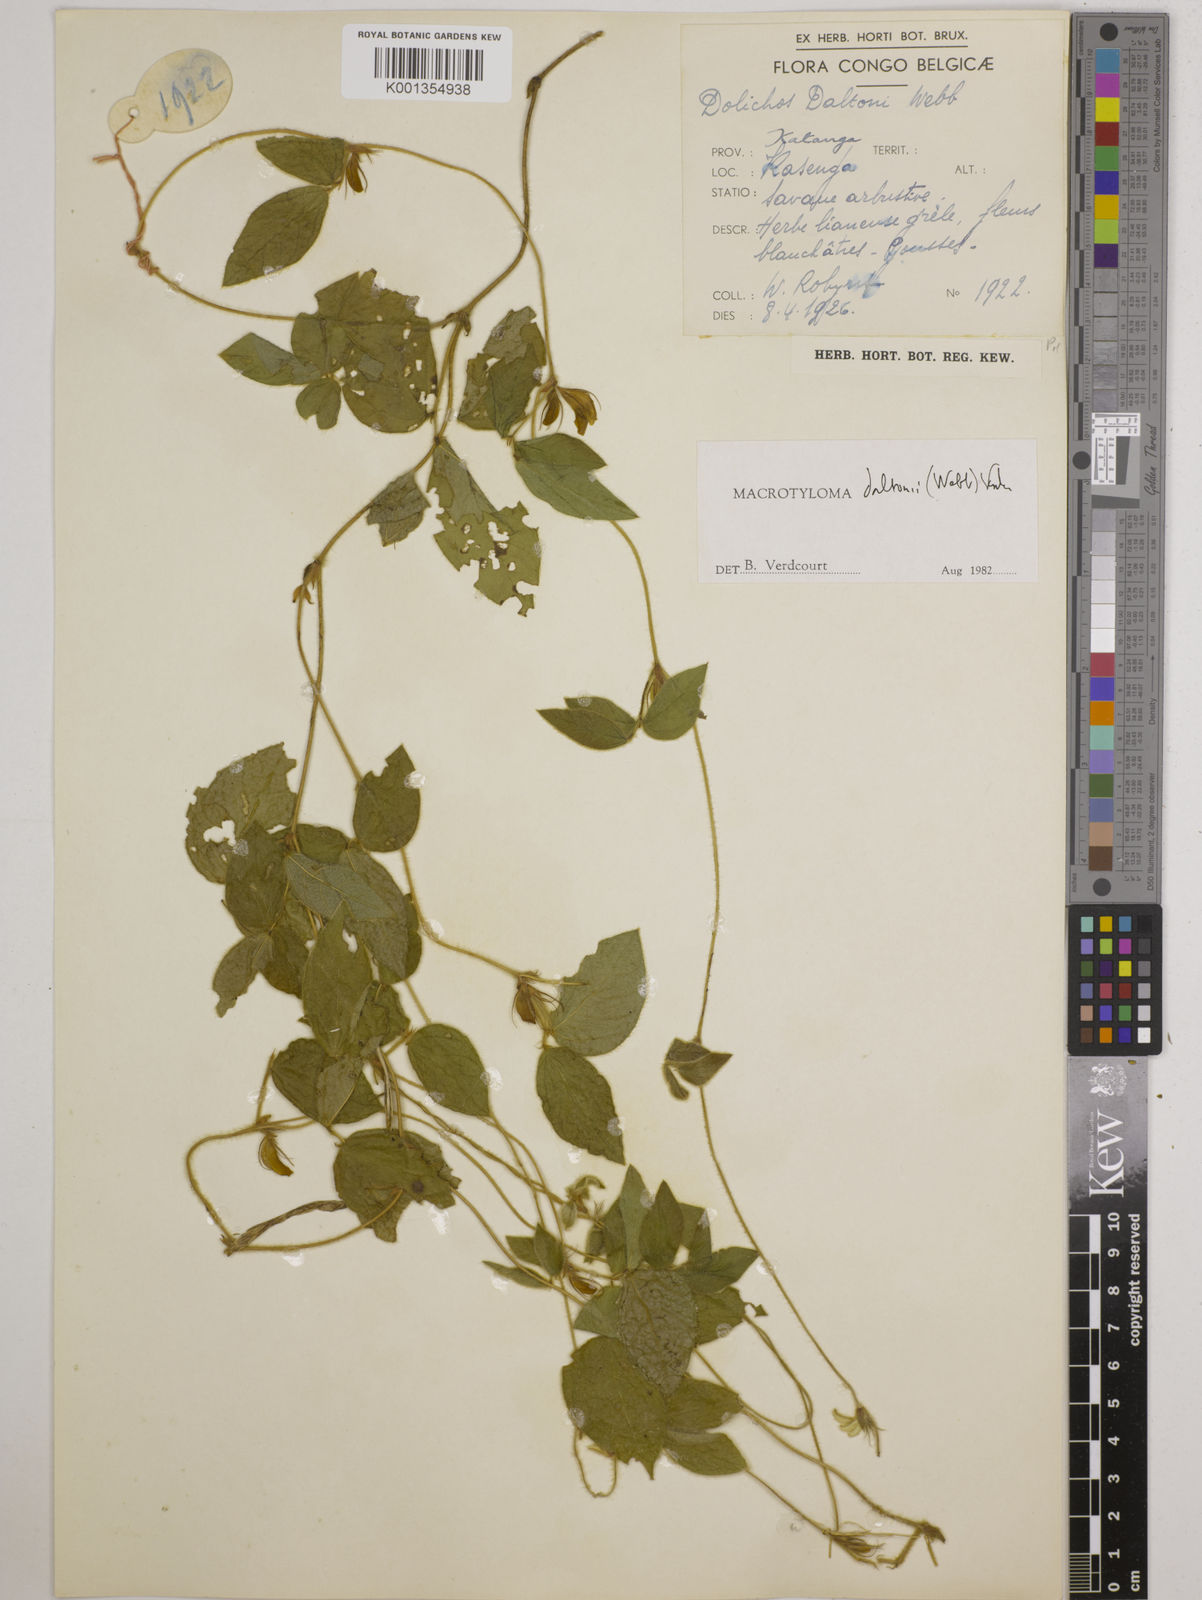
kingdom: Plantae
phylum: Tracheophyta
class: Magnoliopsida
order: Fabales
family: Fabaceae
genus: Macrotyloma
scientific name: Macrotyloma daltonii
